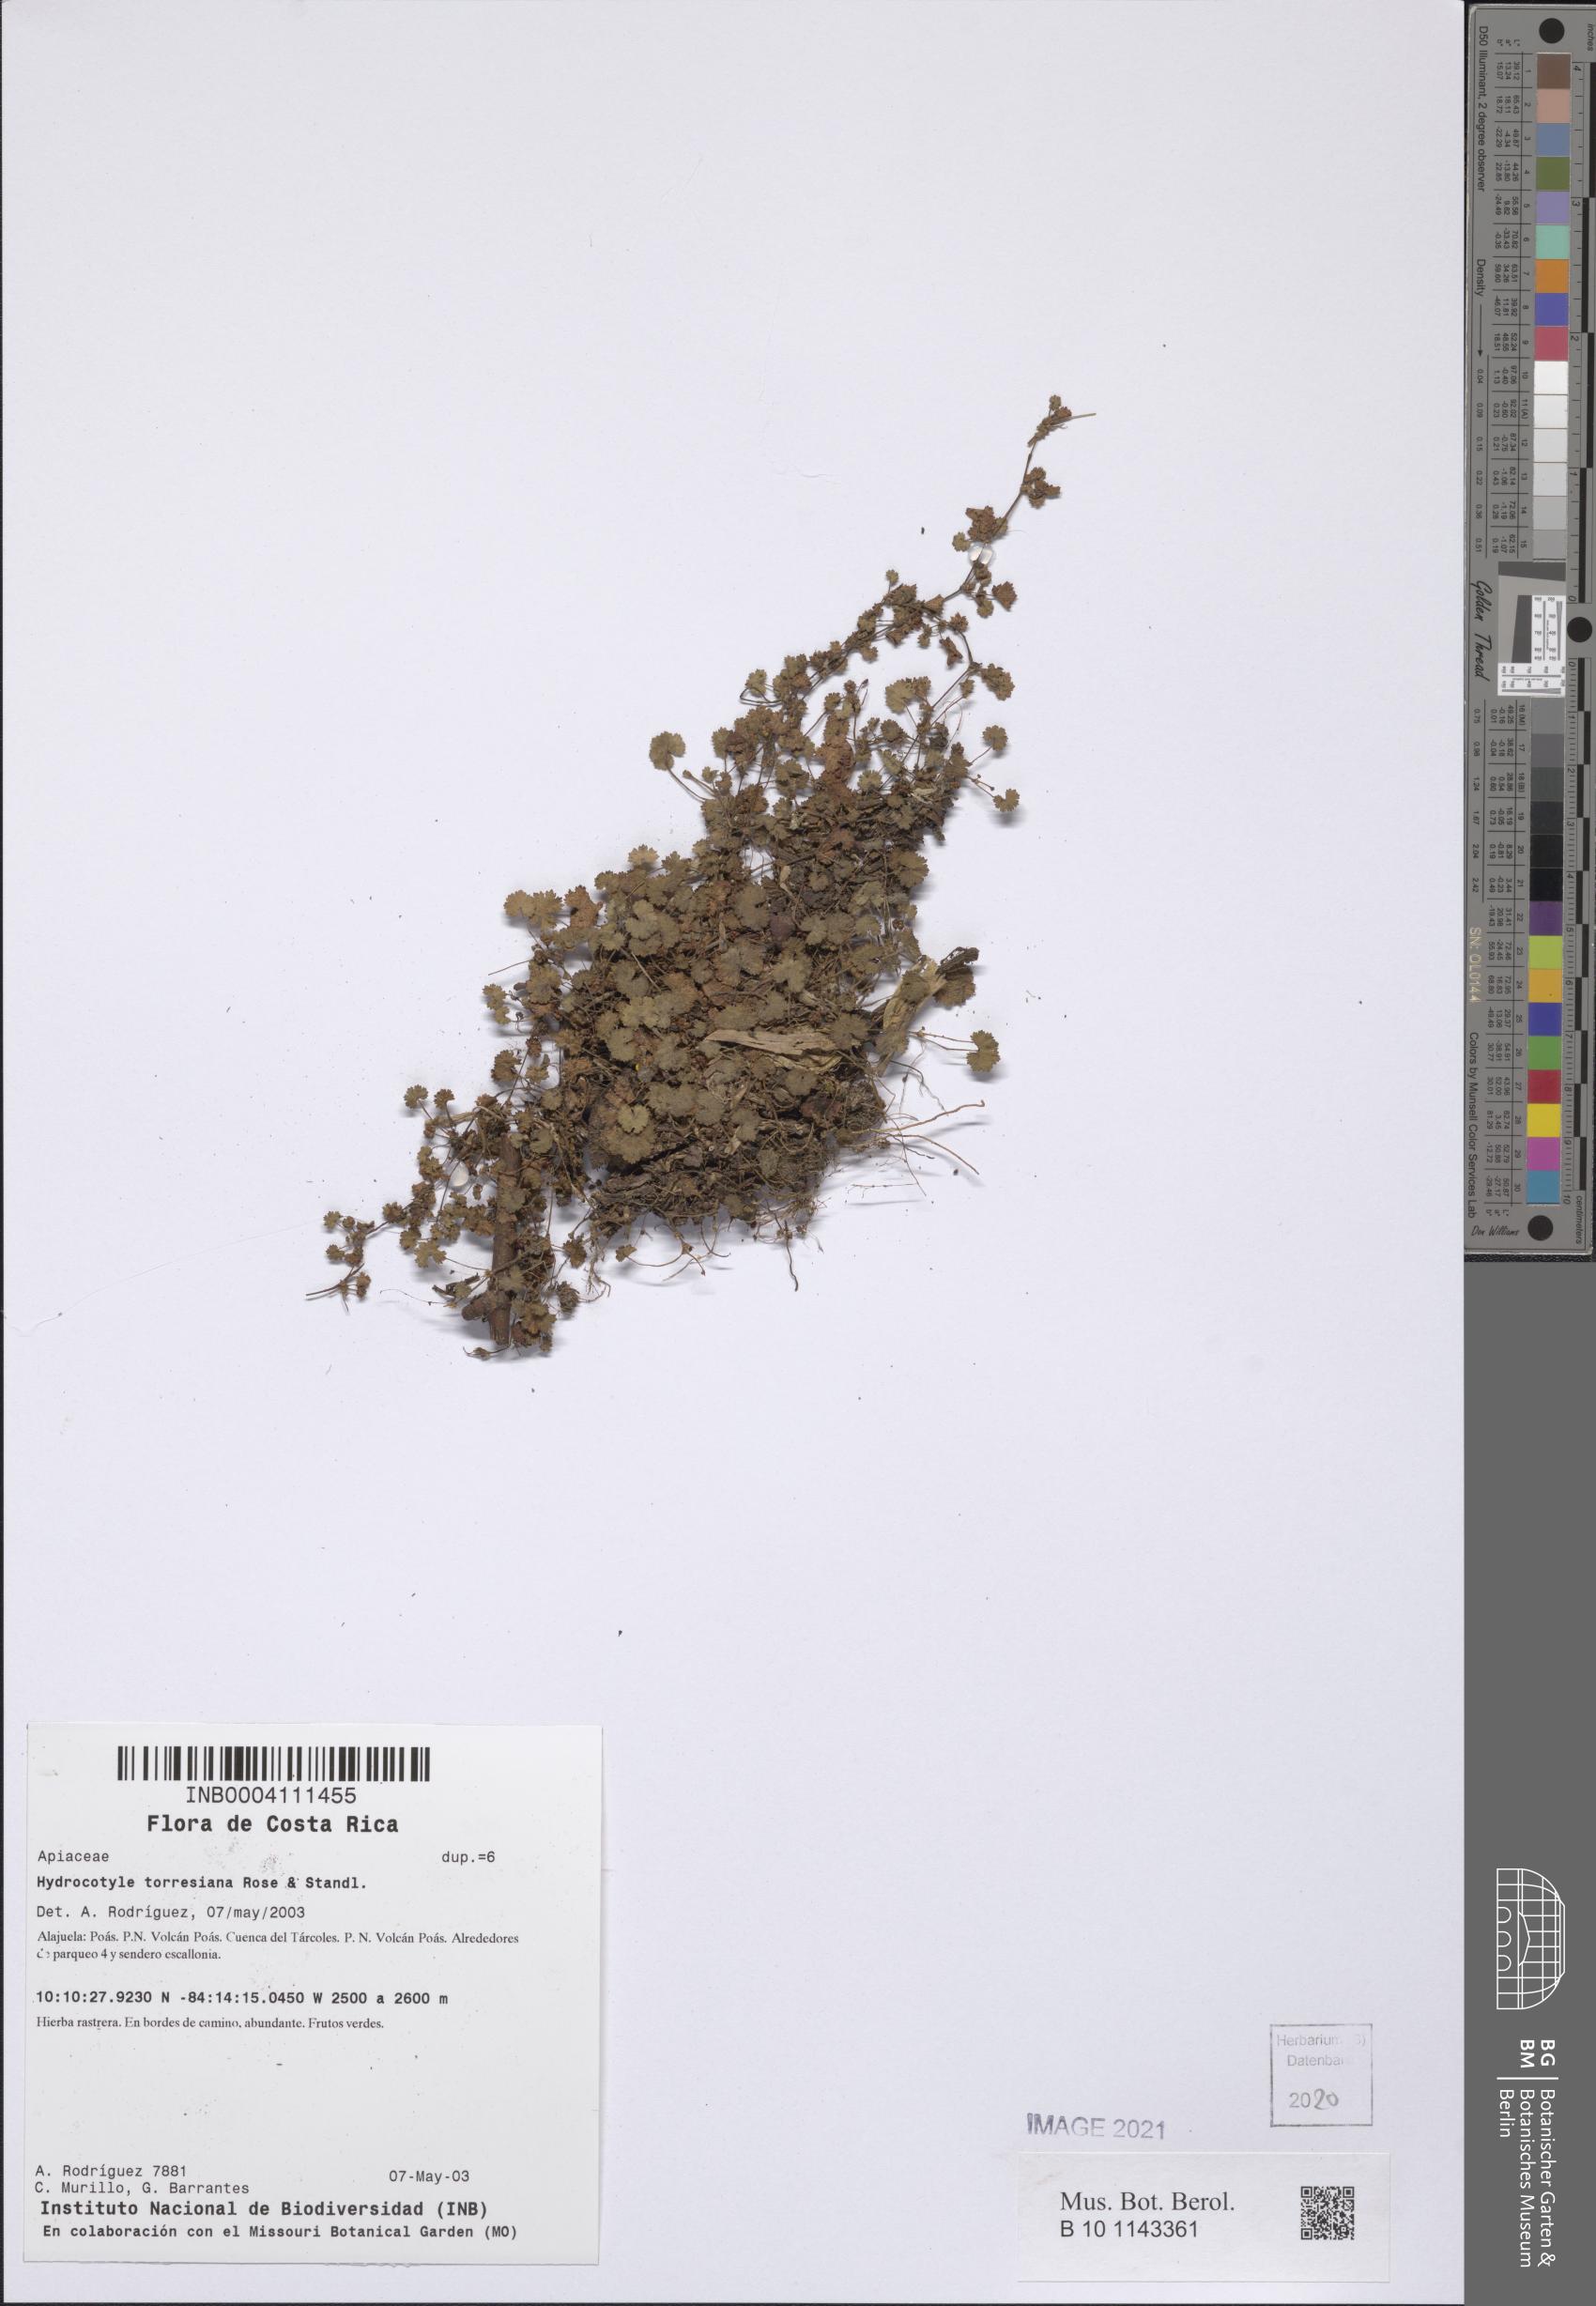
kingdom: Plantae
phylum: Tracheophyta
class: Magnoliopsida
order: Apiales
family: Araliaceae
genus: Hydrocotyle
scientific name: Hydrocotyle torresiana
